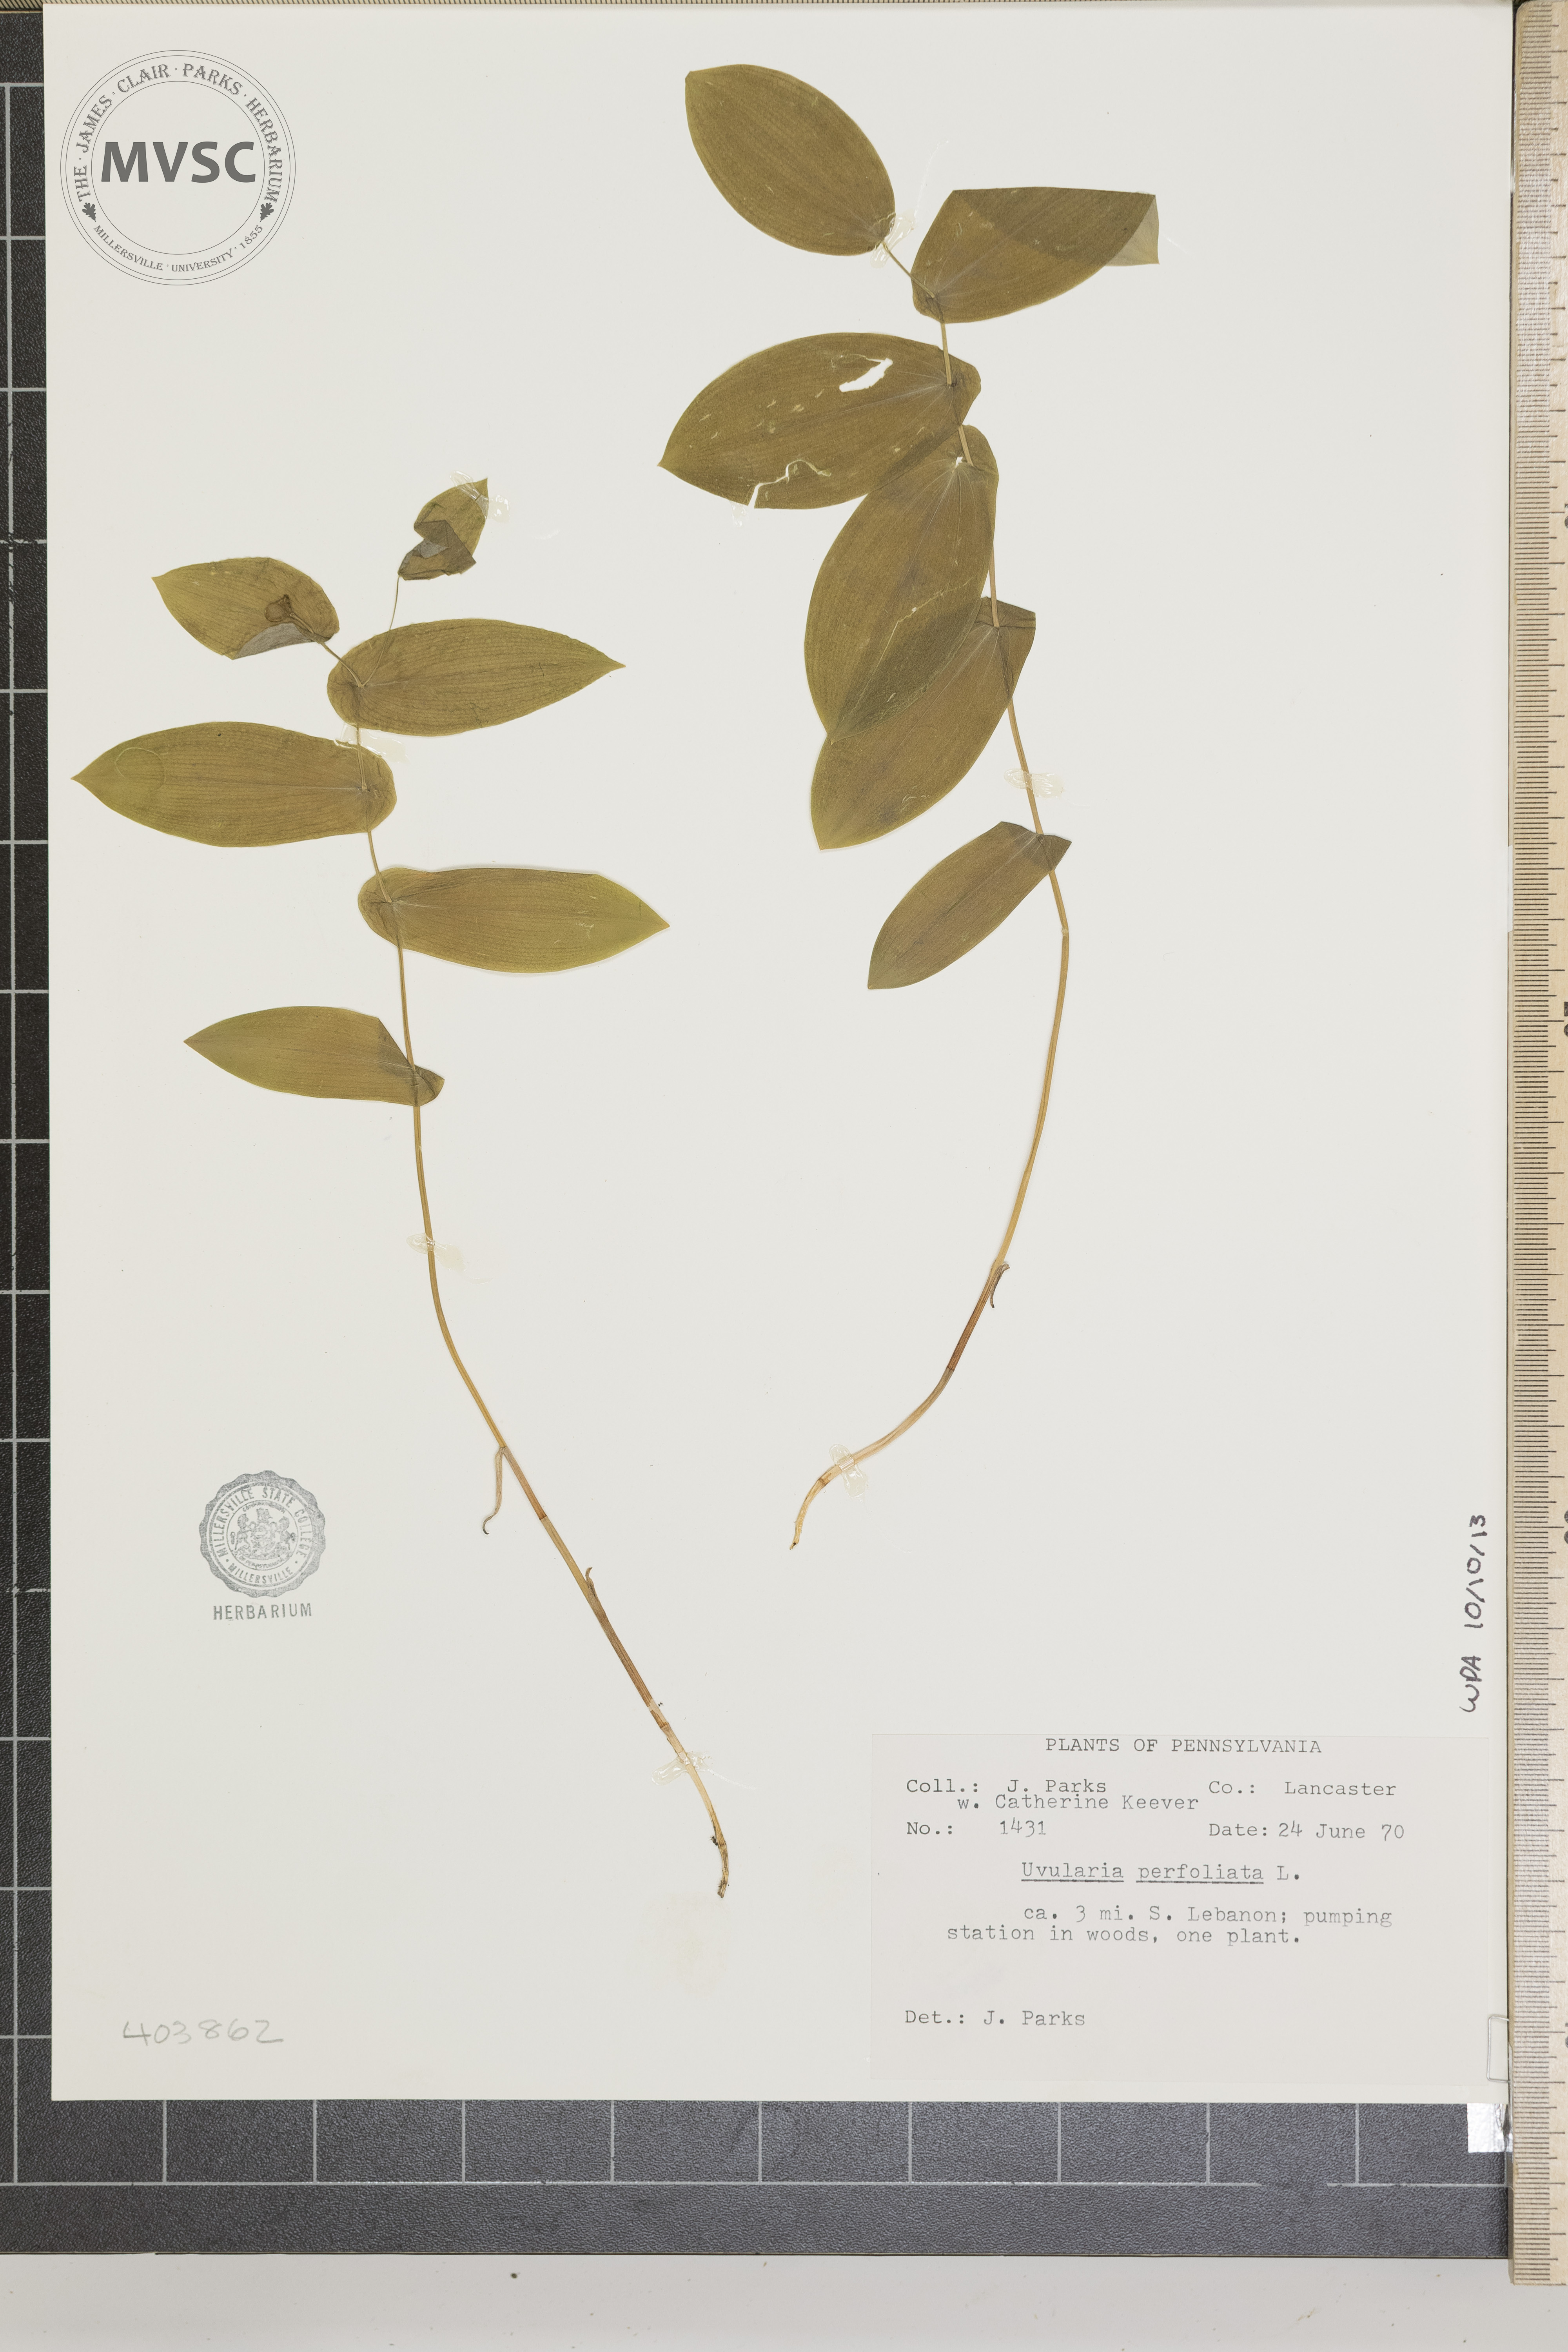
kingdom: Plantae
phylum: Tracheophyta
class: Liliopsida
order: Liliales
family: Colchicaceae
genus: Uvularia
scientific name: Uvularia perfoliata
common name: Perfoliate bellwort
